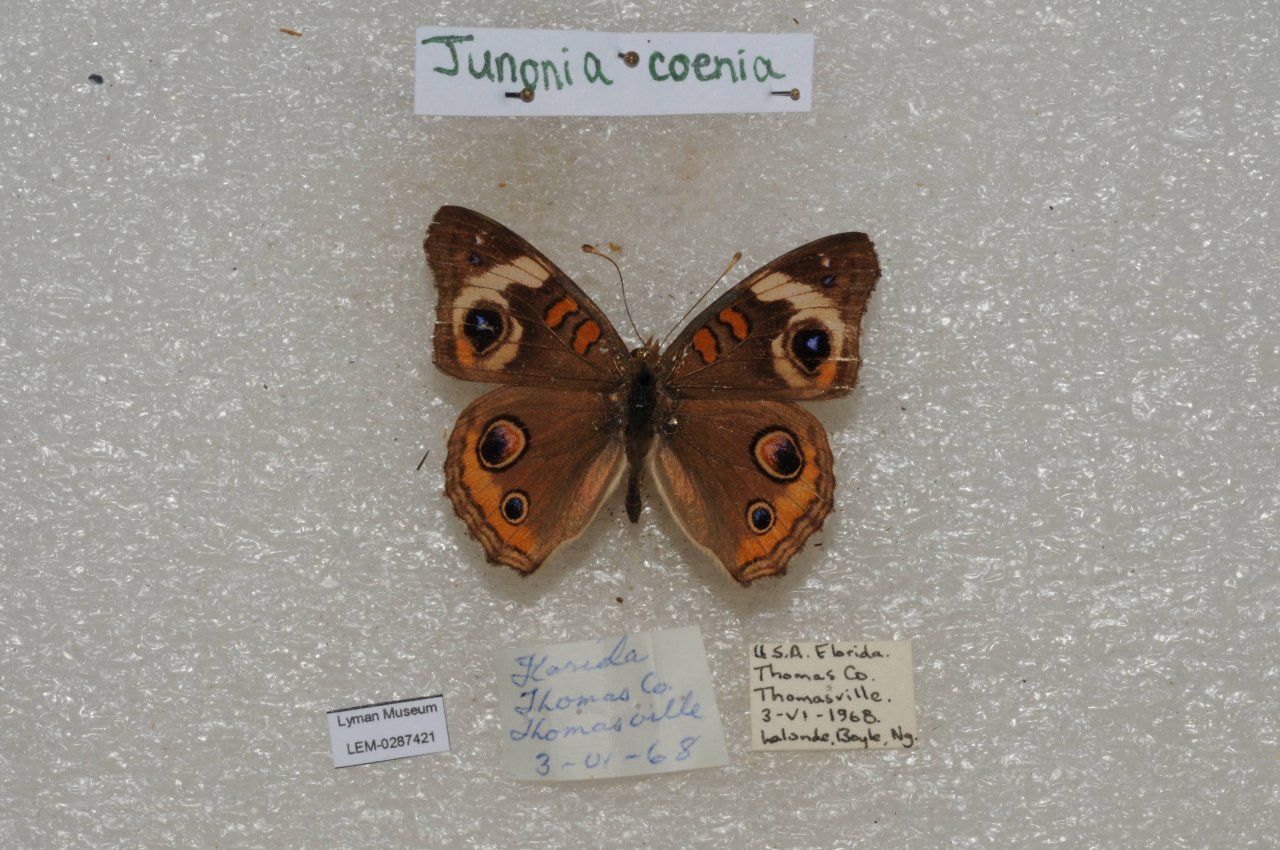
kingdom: Animalia
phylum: Arthropoda
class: Insecta
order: Lepidoptera
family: Nymphalidae
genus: Junonia
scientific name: Junonia coenia
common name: Common Buckeye
